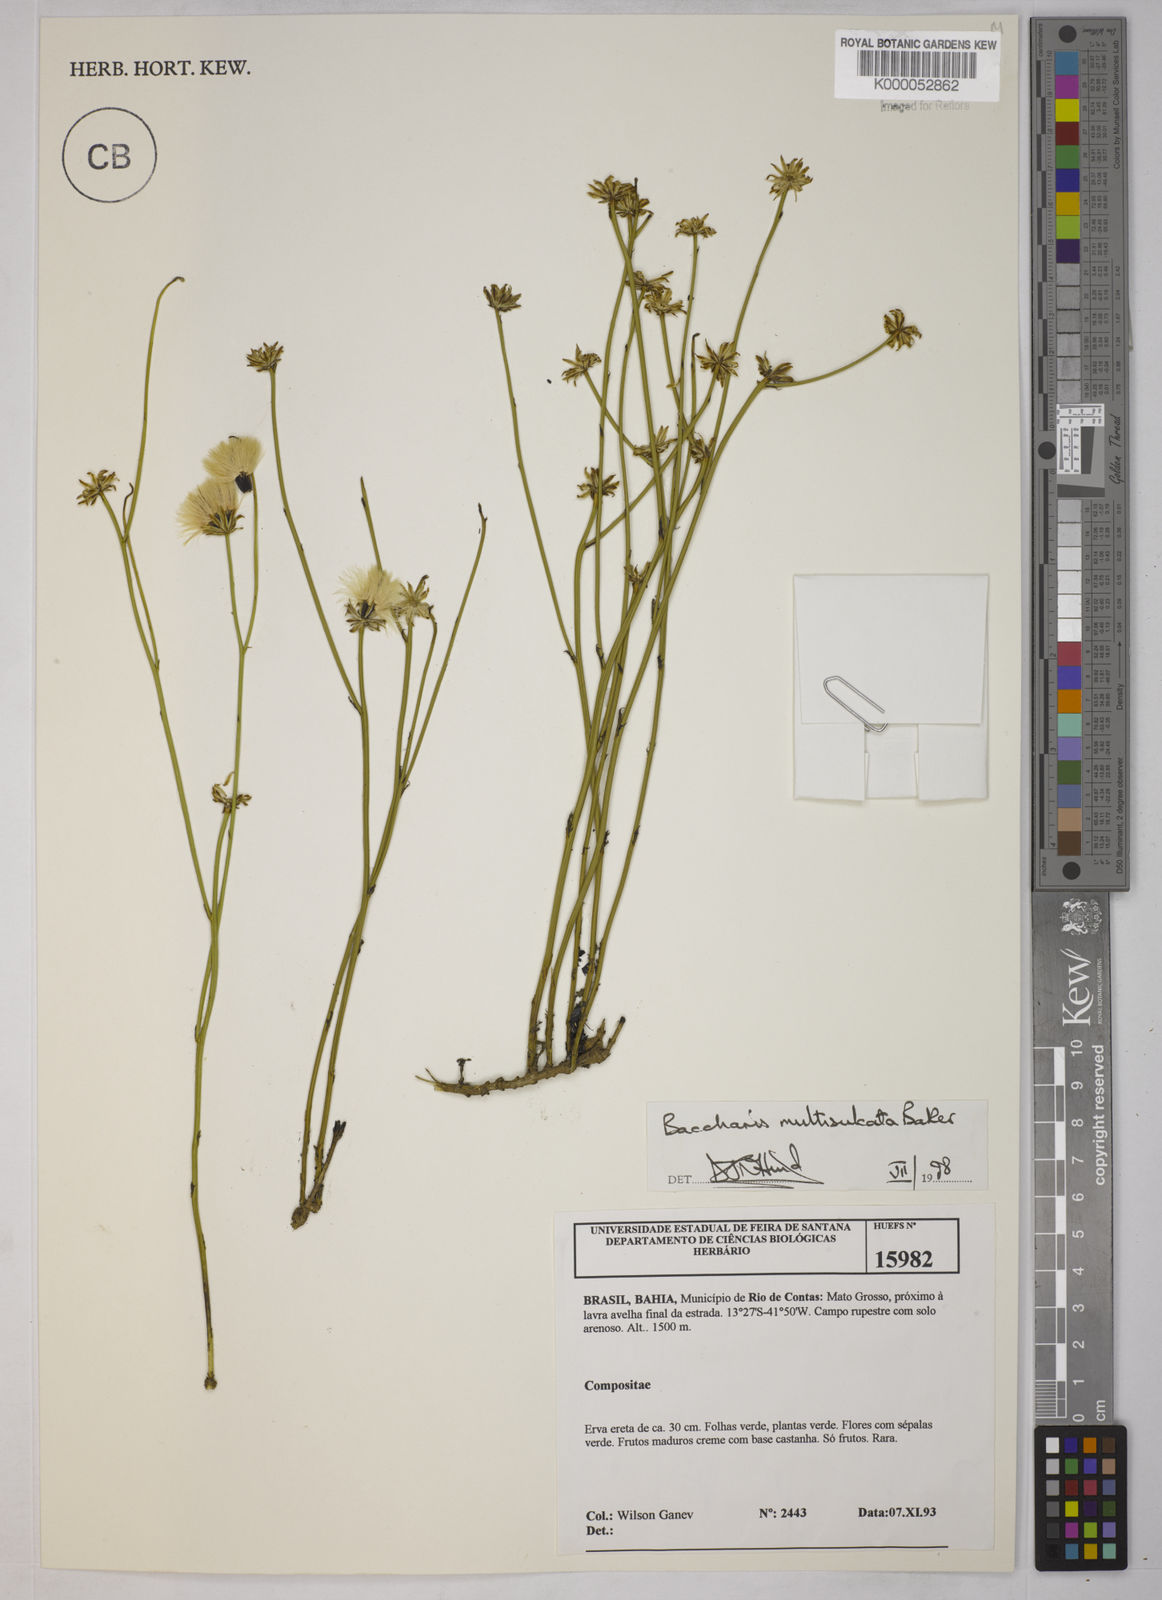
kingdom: Plantae
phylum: Tracheophyta
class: Magnoliopsida
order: Asterales
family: Asteraceae
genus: Baccharis
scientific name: Baccharis orbignyana
